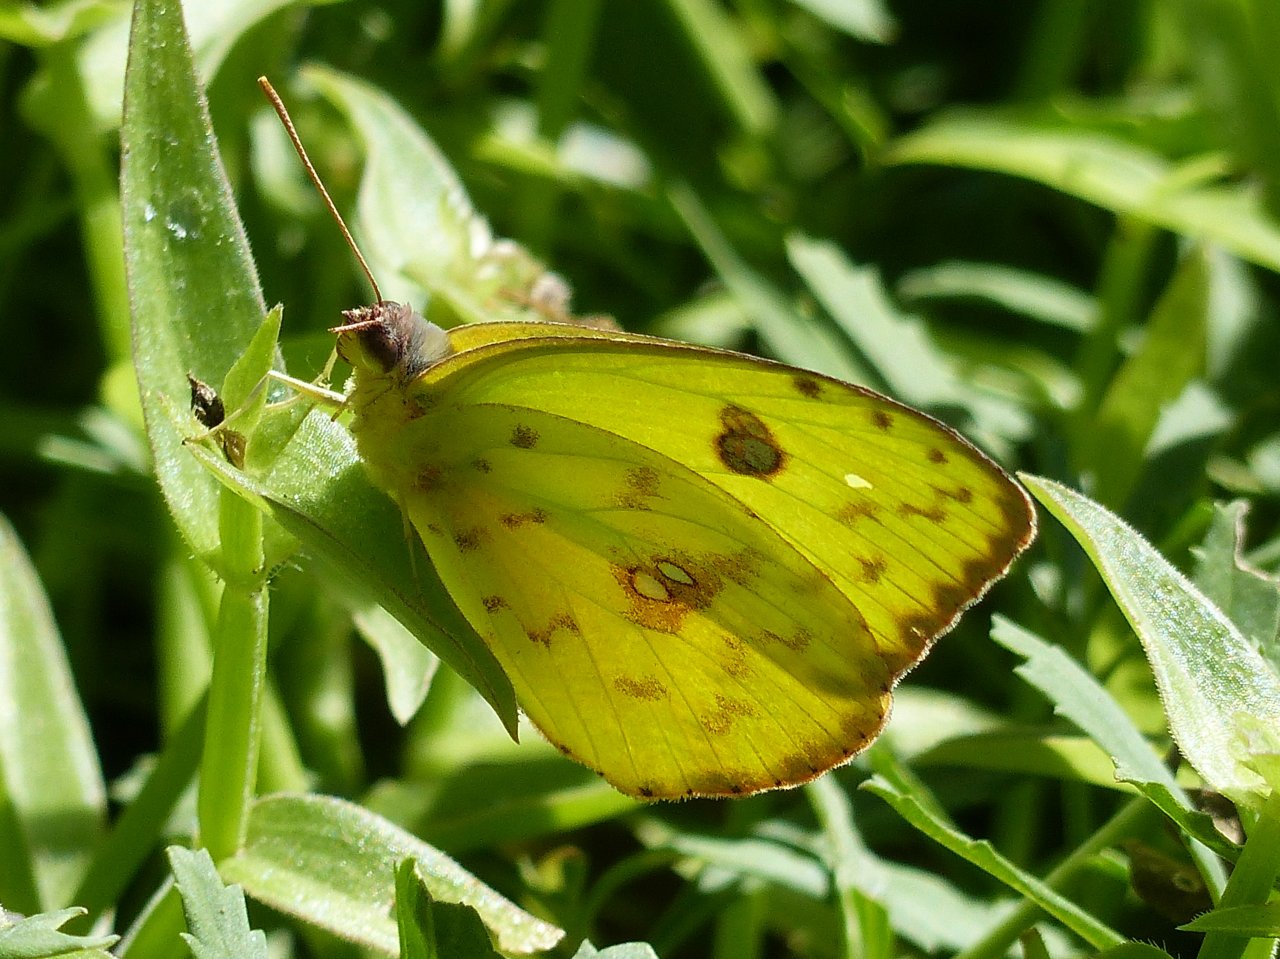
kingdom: Animalia
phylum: Arthropoda
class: Insecta
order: Lepidoptera
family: Pieridae
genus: Phoebis
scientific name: Phoebis sennae
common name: Cloudless Sulphur
